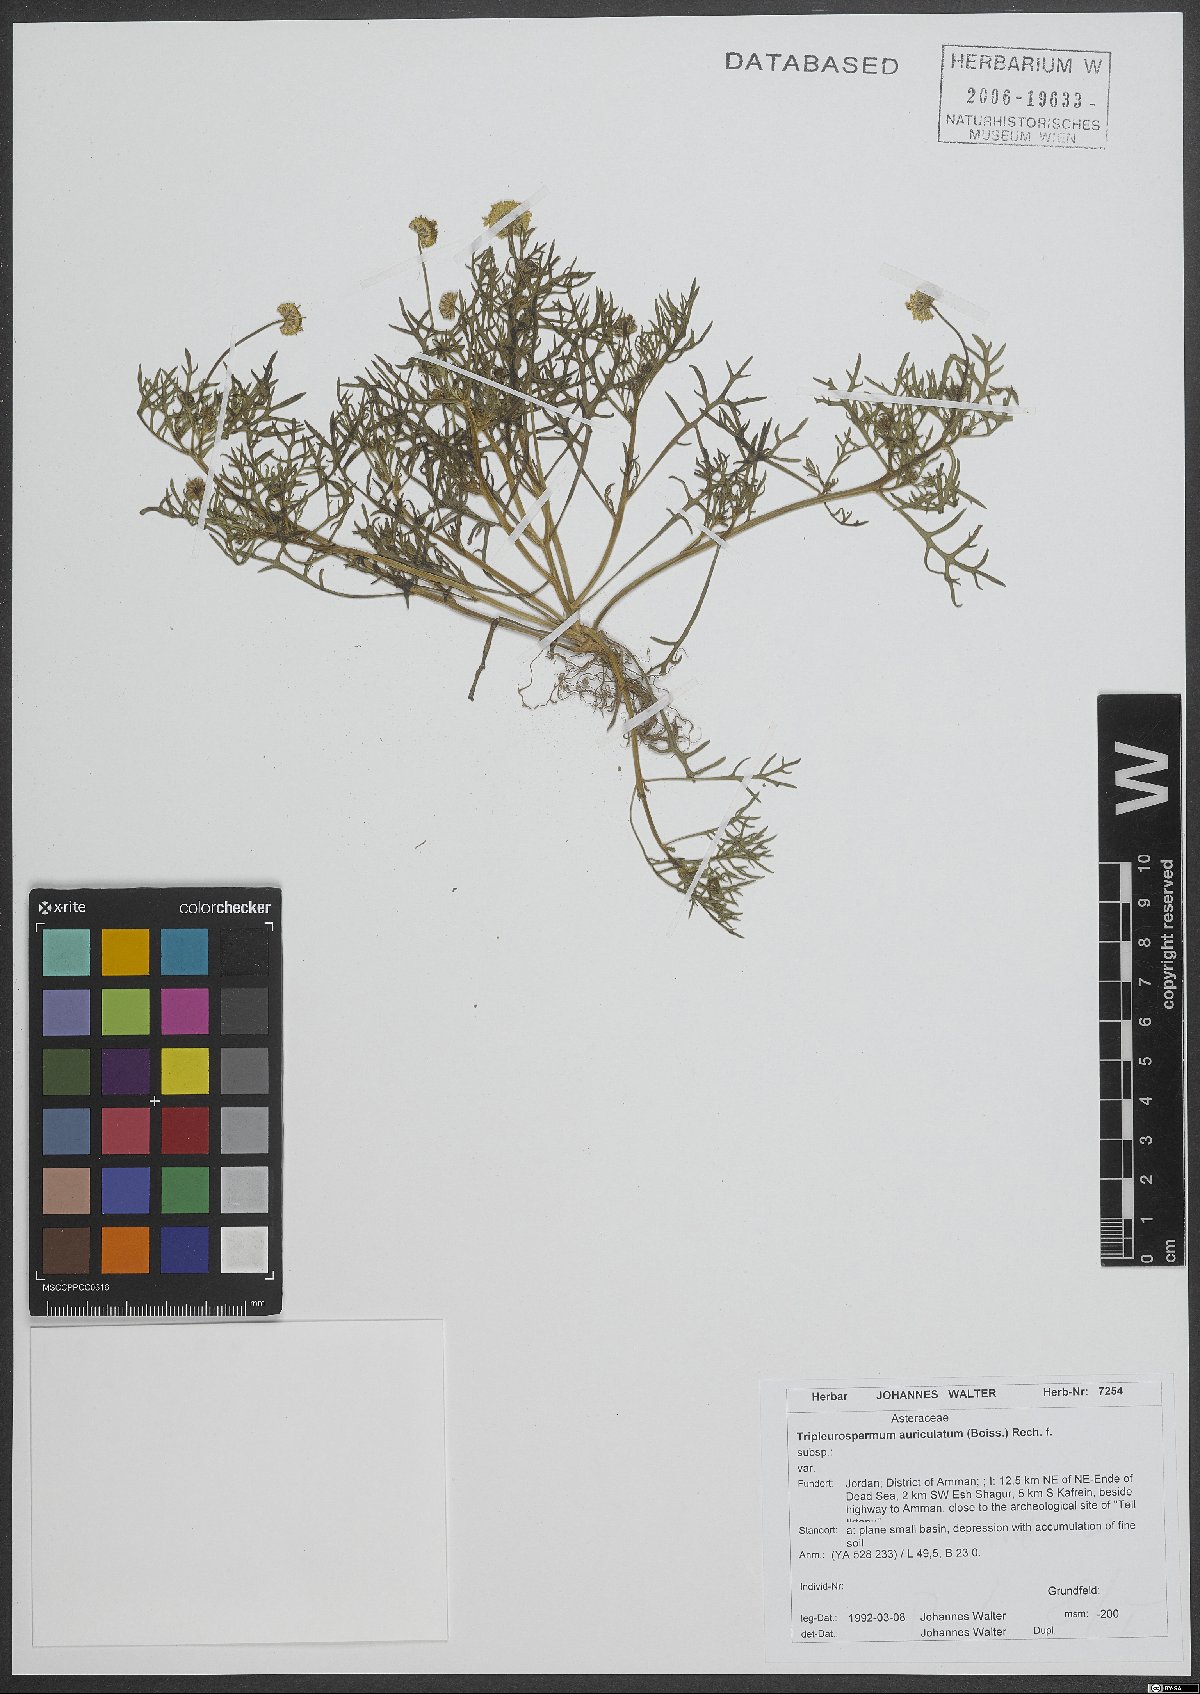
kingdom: Plantae
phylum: Tracheophyta
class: Magnoliopsida
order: Asterales
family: Asteraceae
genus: Tripleurospermum
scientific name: Tripleurospermum auriculatum
